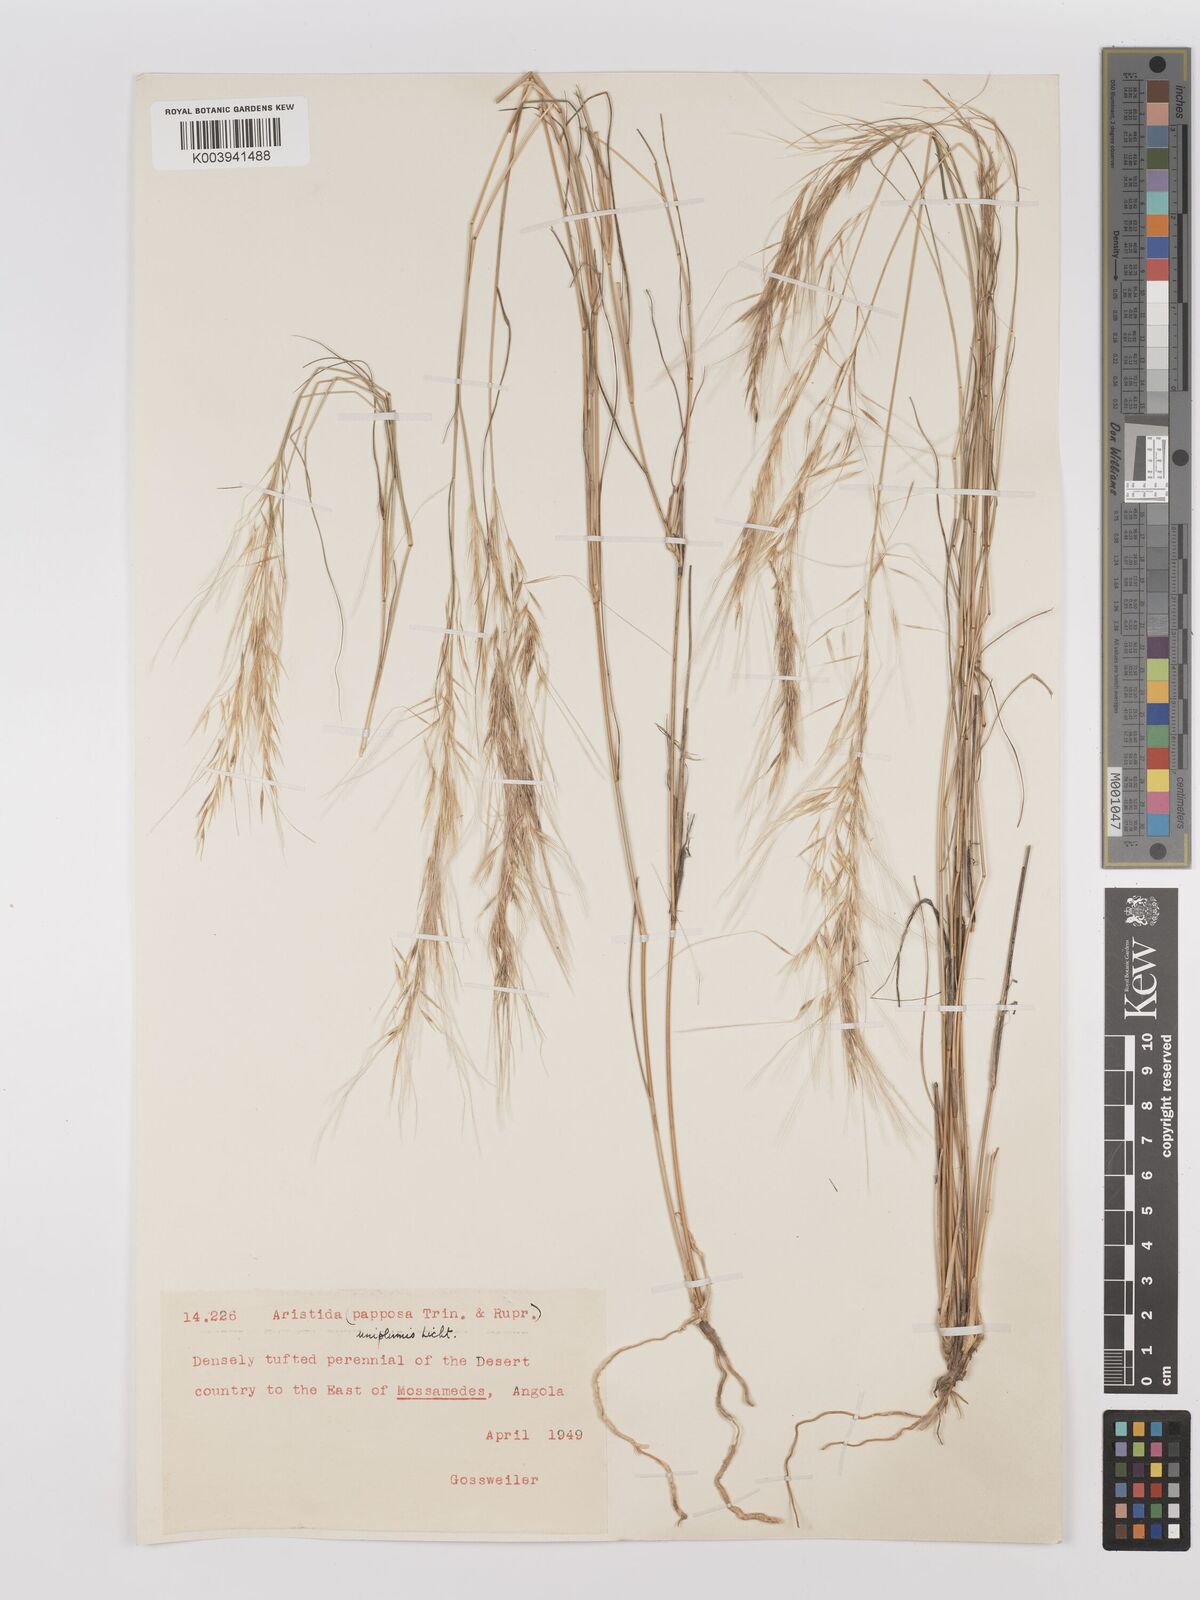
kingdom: Plantae
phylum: Tracheophyta
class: Liliopsida
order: Poales
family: Poaceae
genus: Stipagrostis
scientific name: Stipagrostis uniplumis
